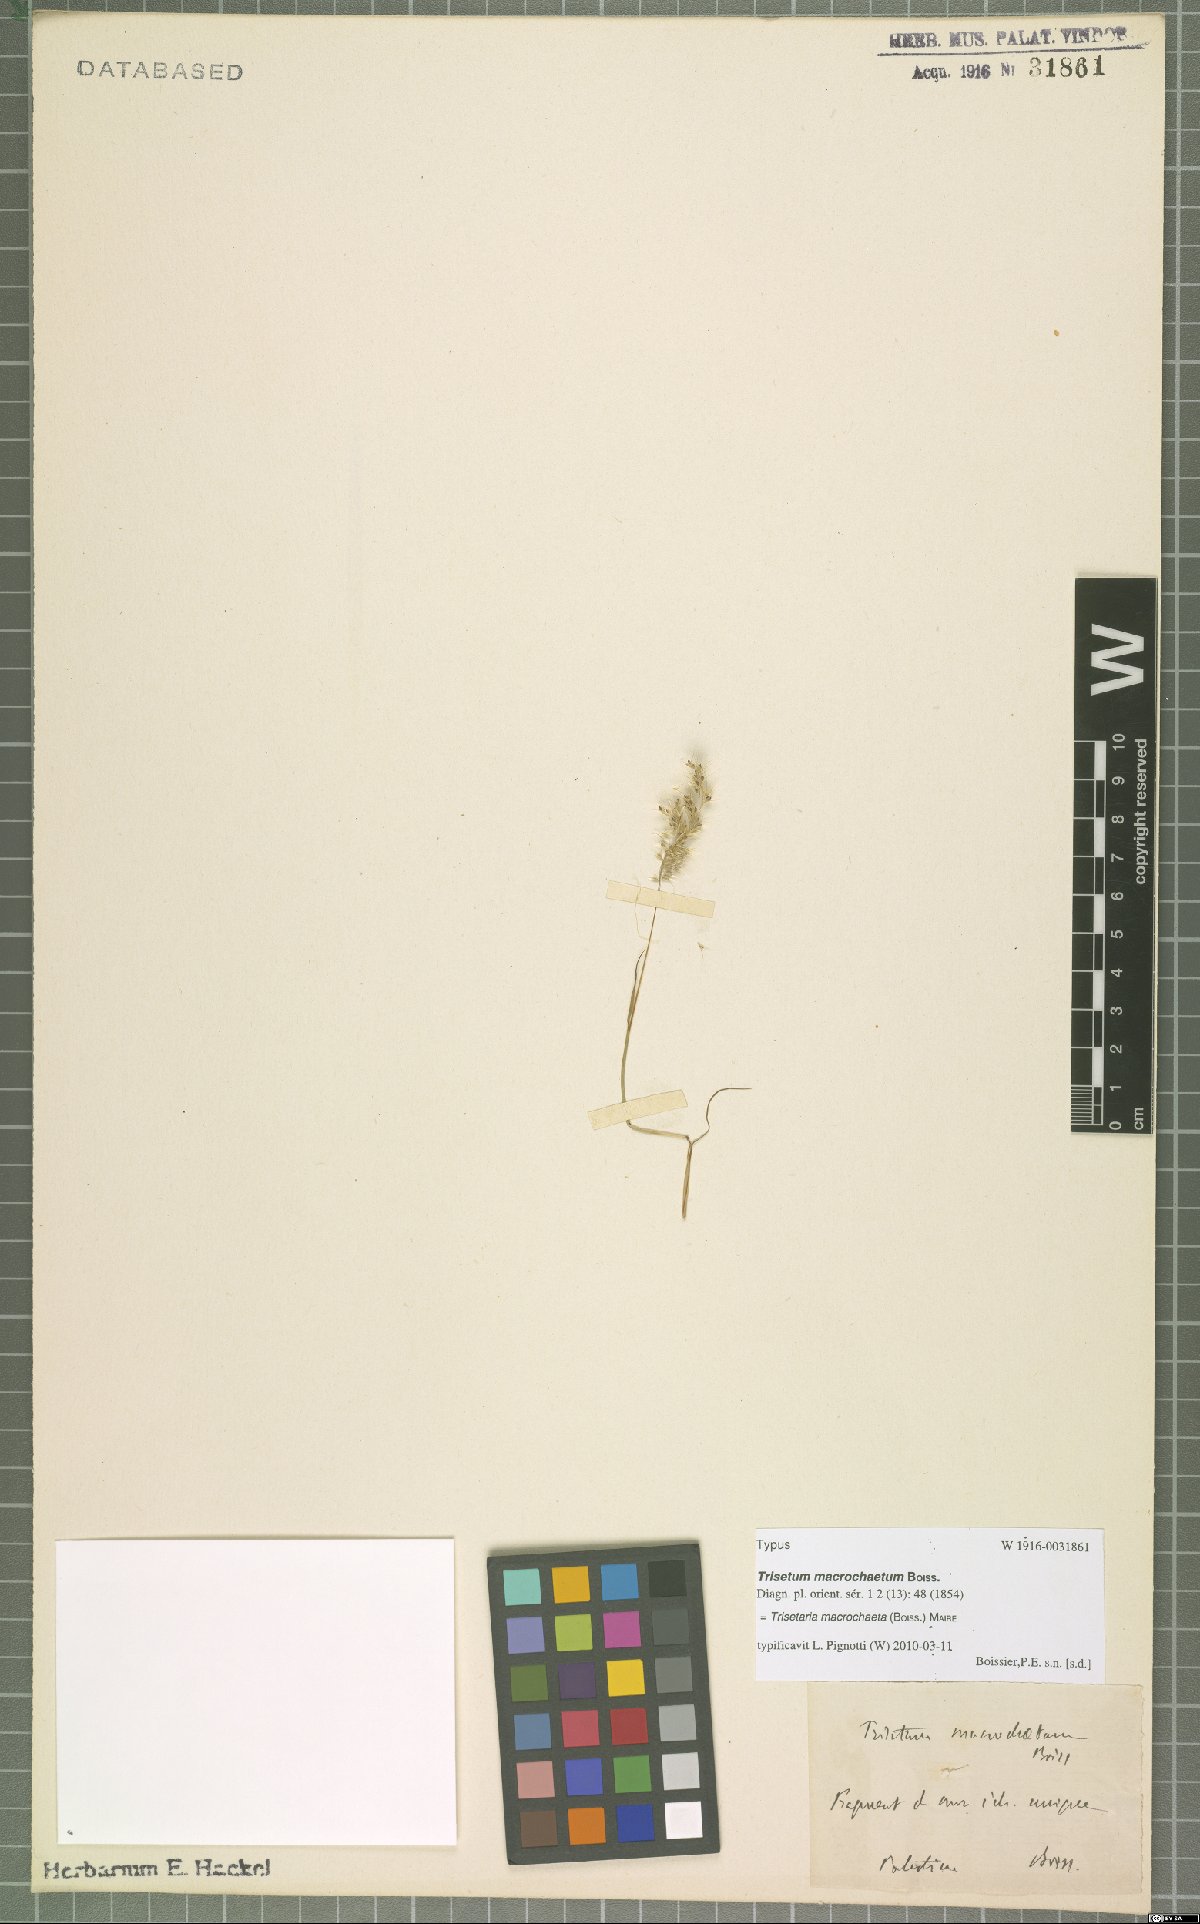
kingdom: Plantae
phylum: Tracheophyta
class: Liliopsida
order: Poales
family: Poaceae
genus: Trisetaria
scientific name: Trisetaria macrochaeta
